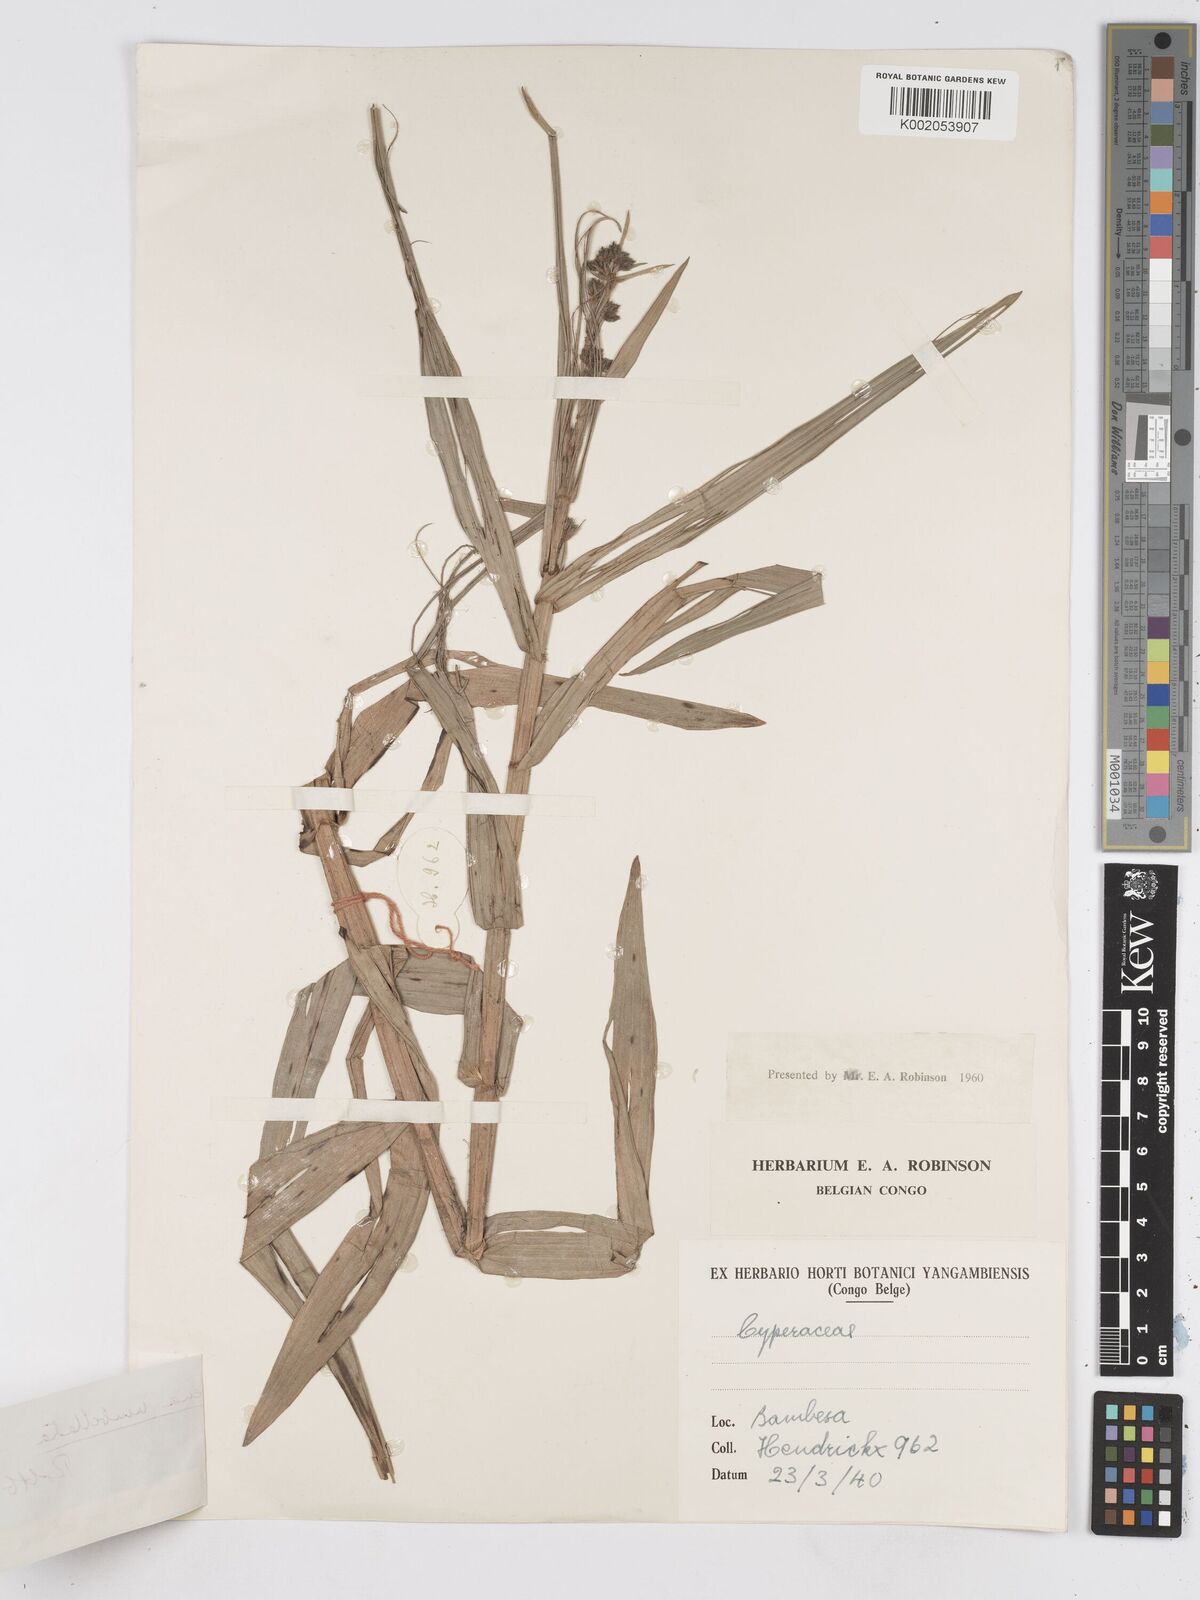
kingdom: Plantae
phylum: Tracheophyta
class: Liliopsida
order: Poales
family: Cyperaceae
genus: Fuirena
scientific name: Fuirena umbellata
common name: Yefen
